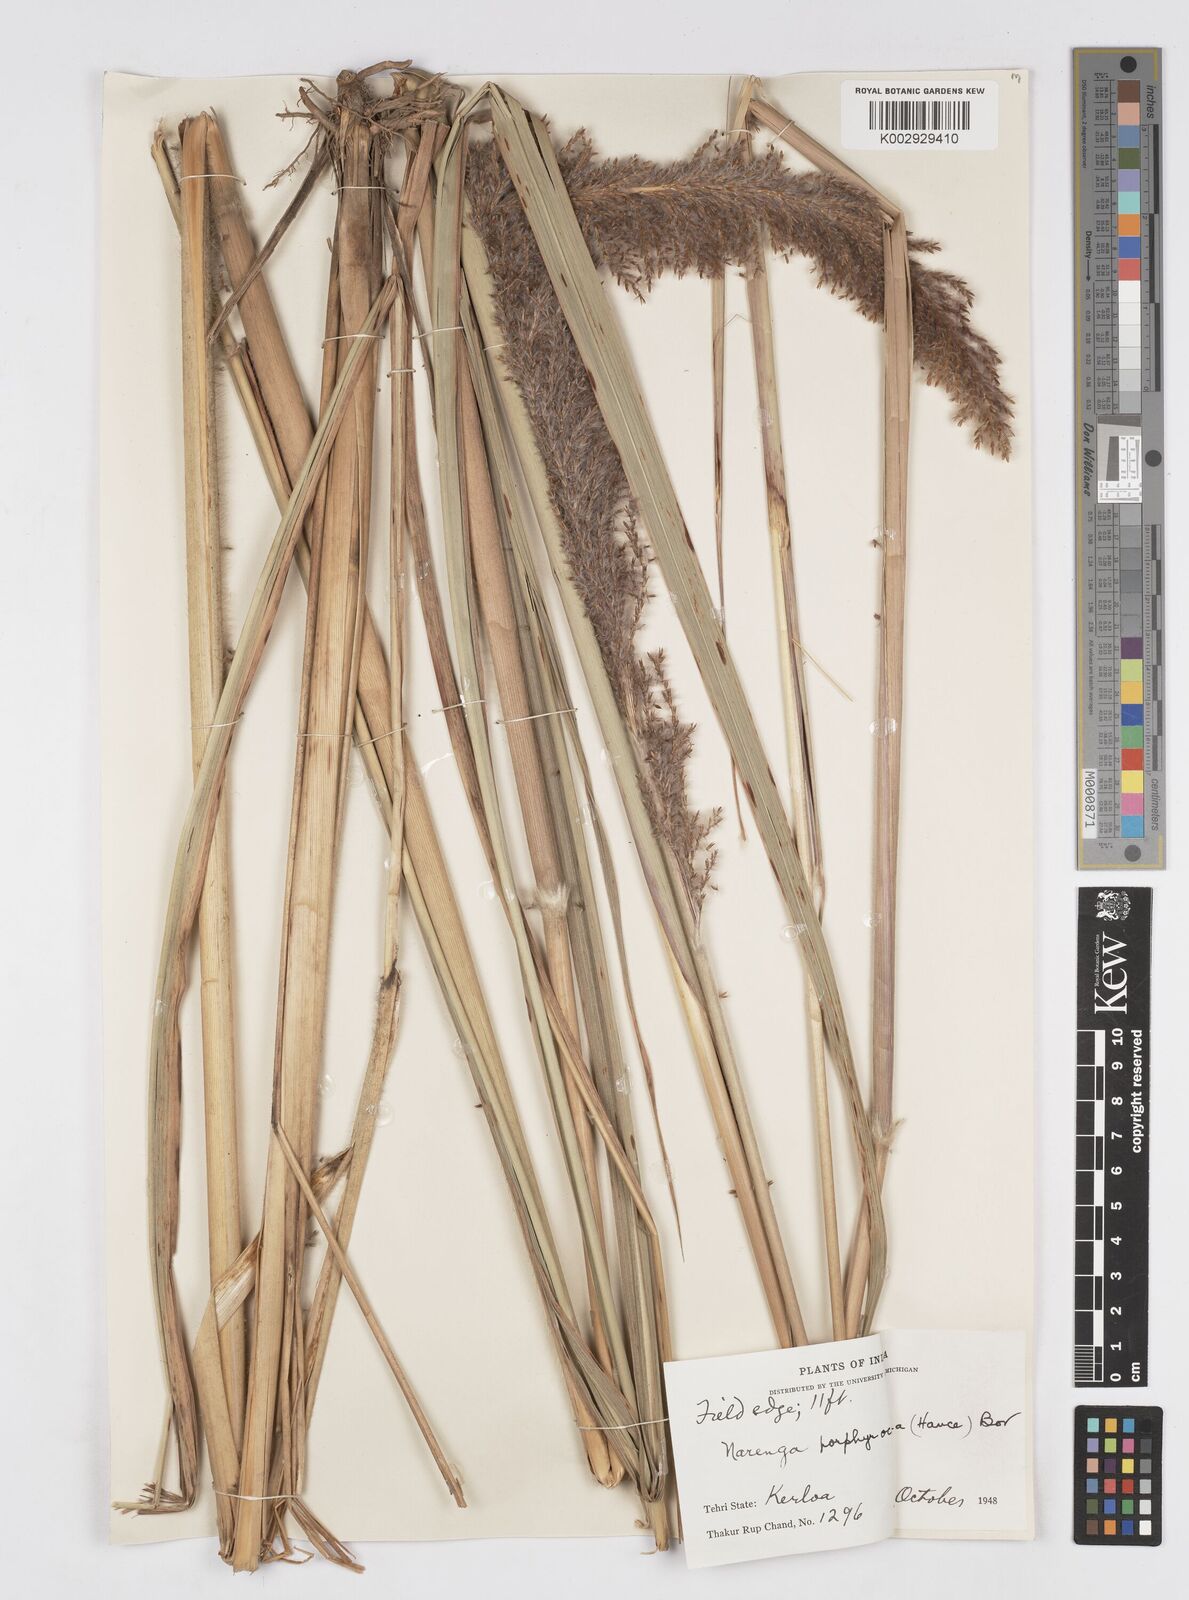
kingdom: Plantae
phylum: Tracheophyta
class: Liliopsida
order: Poales
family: Poaceae
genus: Narenga
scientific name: Narenga porphyrocoma
